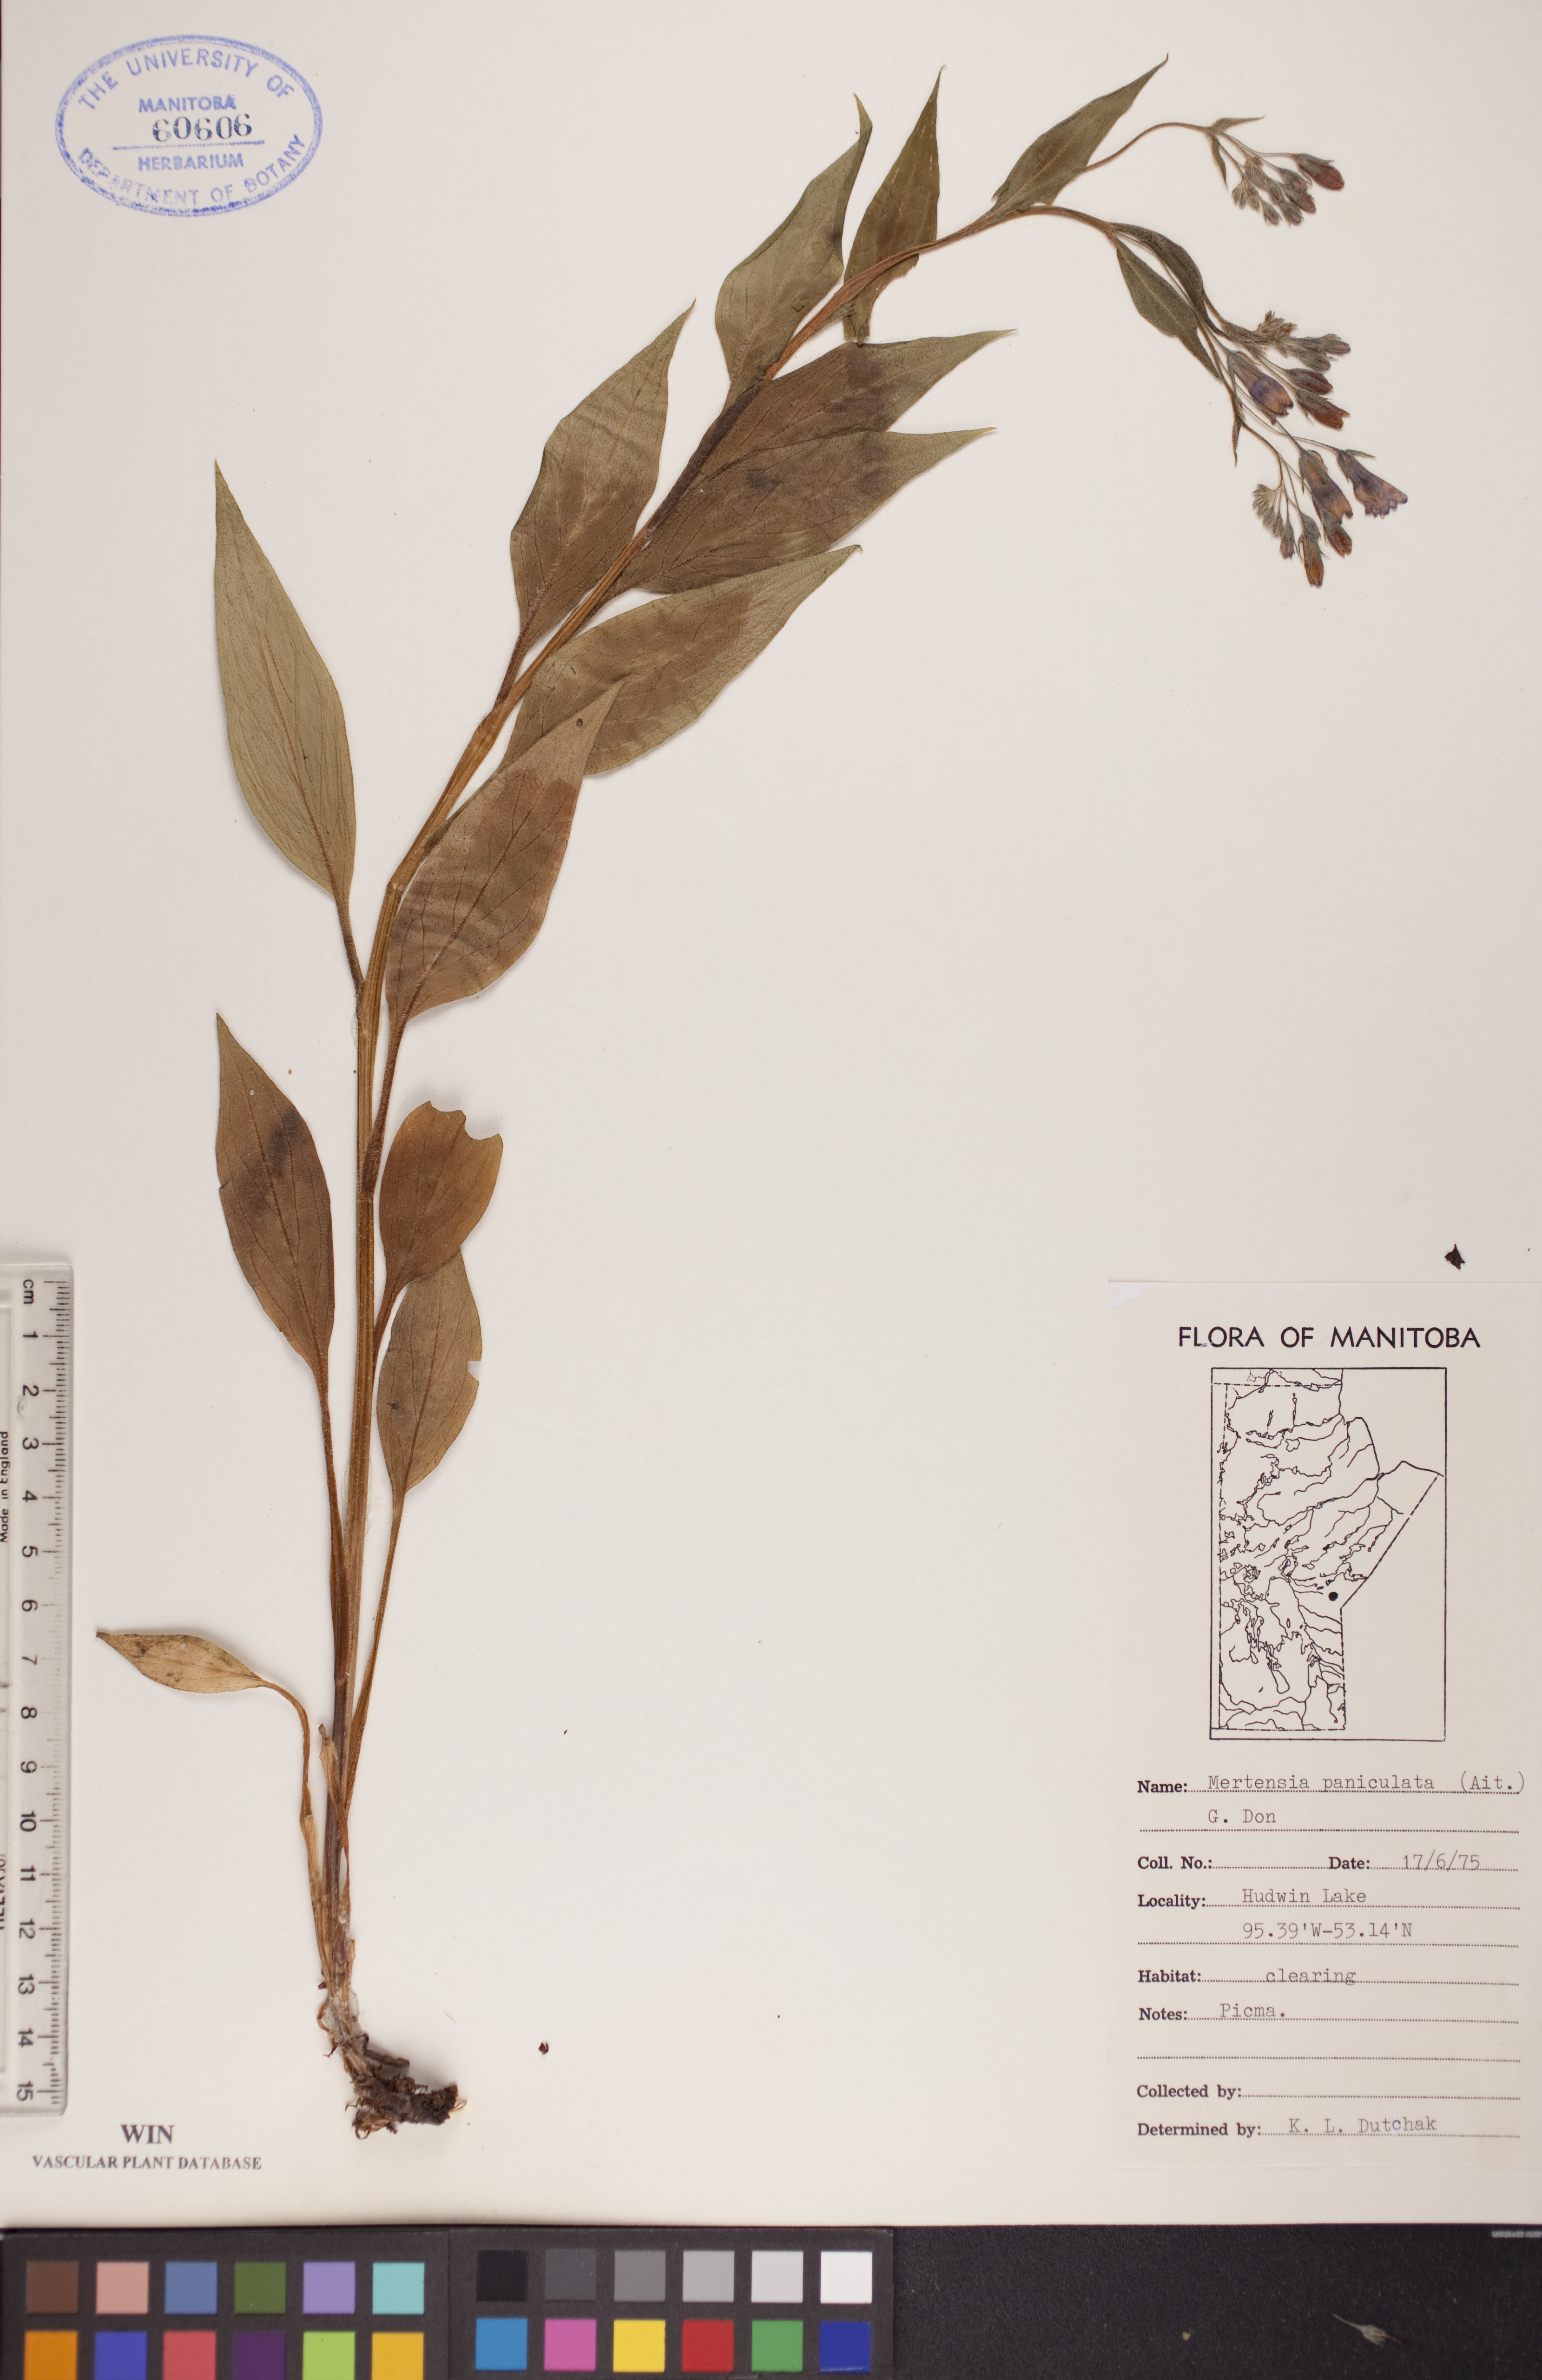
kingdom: Plantae
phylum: Tracheophyta
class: Magnoliopsida
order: Boraginales
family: Boraginaceae
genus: Mertensia
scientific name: Mertensia paniculata
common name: Panicled bluebells
